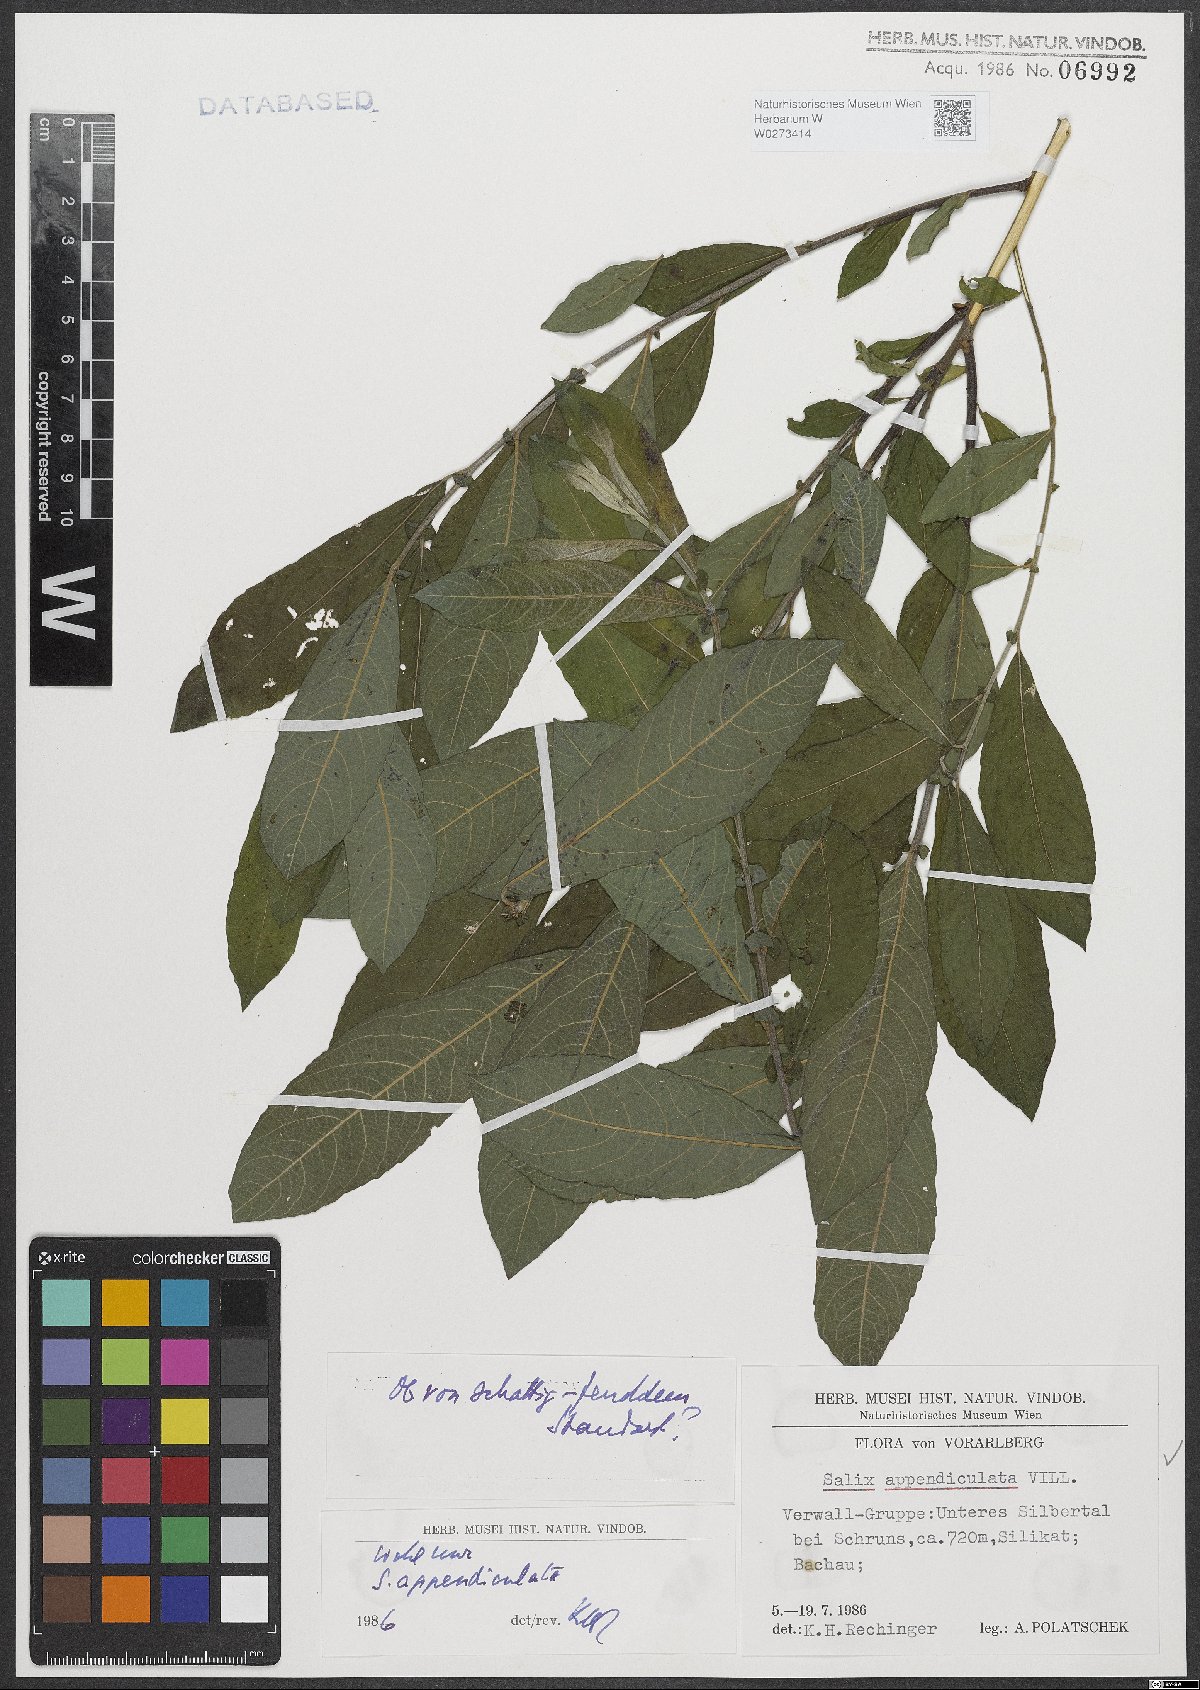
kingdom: Plantae
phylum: Tracheophyta
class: Magnoliopsida
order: Malpighiales
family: Salicaceae
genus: Salix
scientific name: Salix appendiculata
